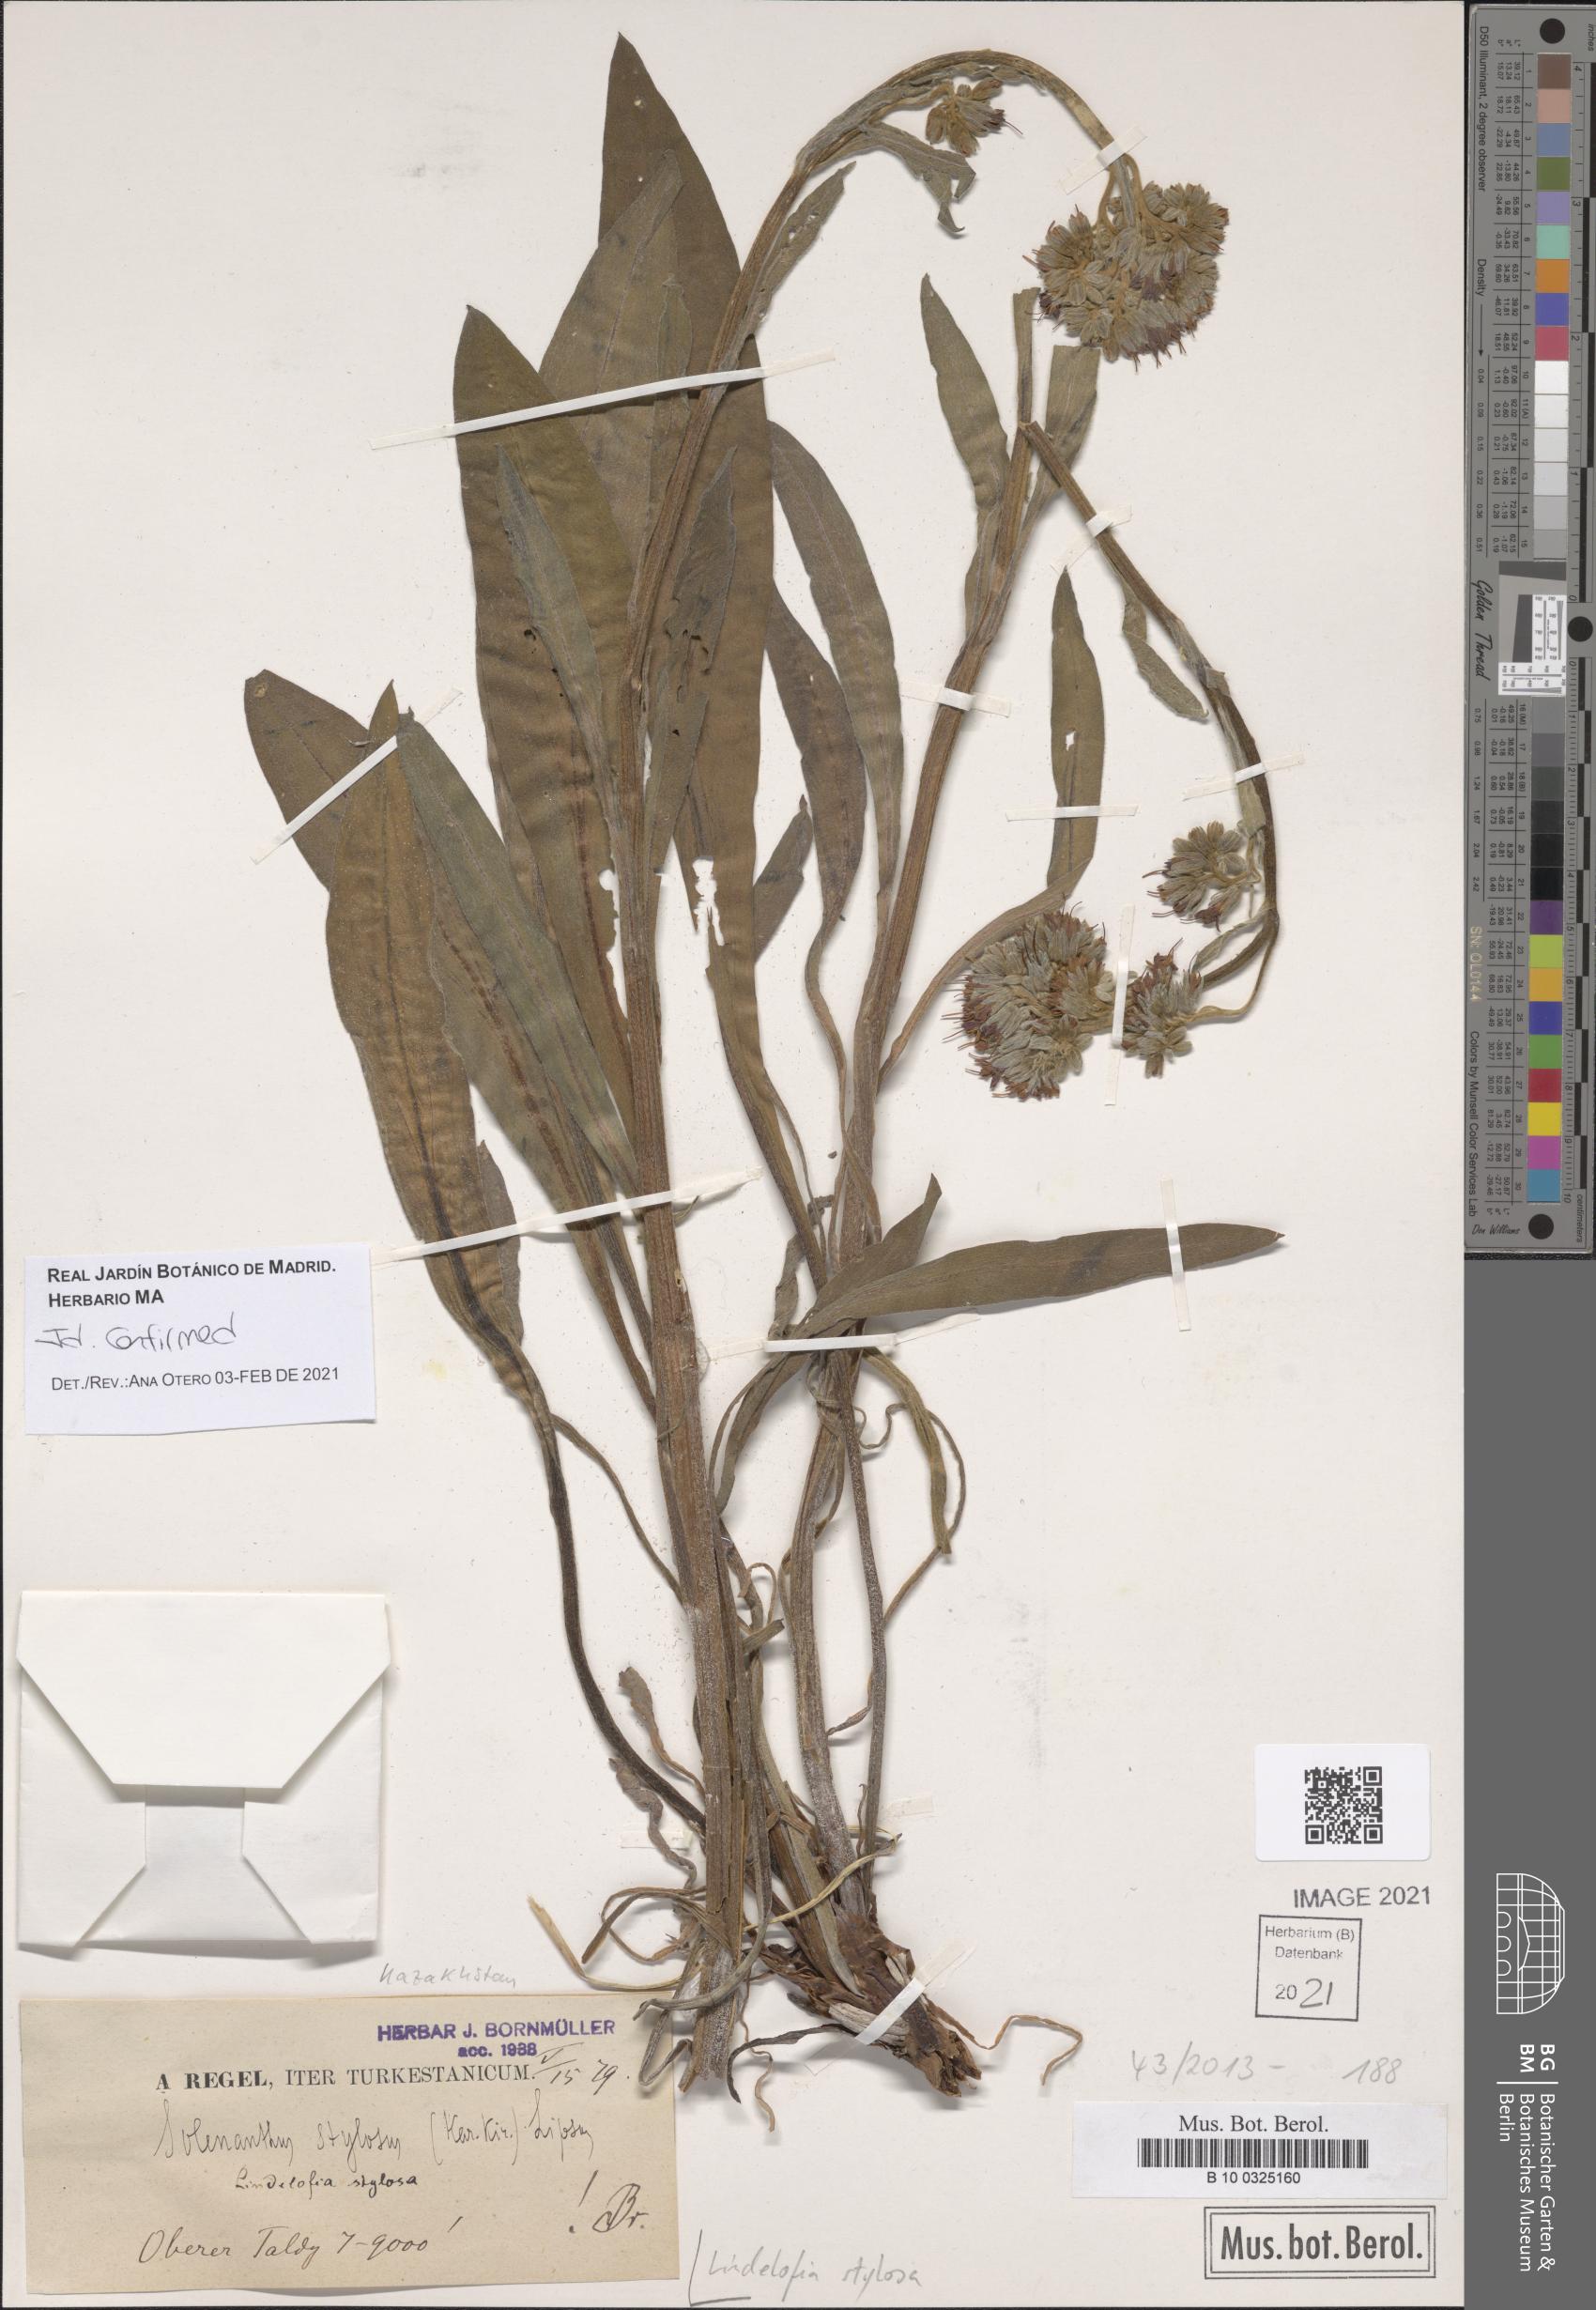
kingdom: Plantae
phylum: Tracheophyta
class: Magnoliopsida
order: Boraginales
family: Boraginaceae
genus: Lindelofia
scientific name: Lindelofia stylosa
